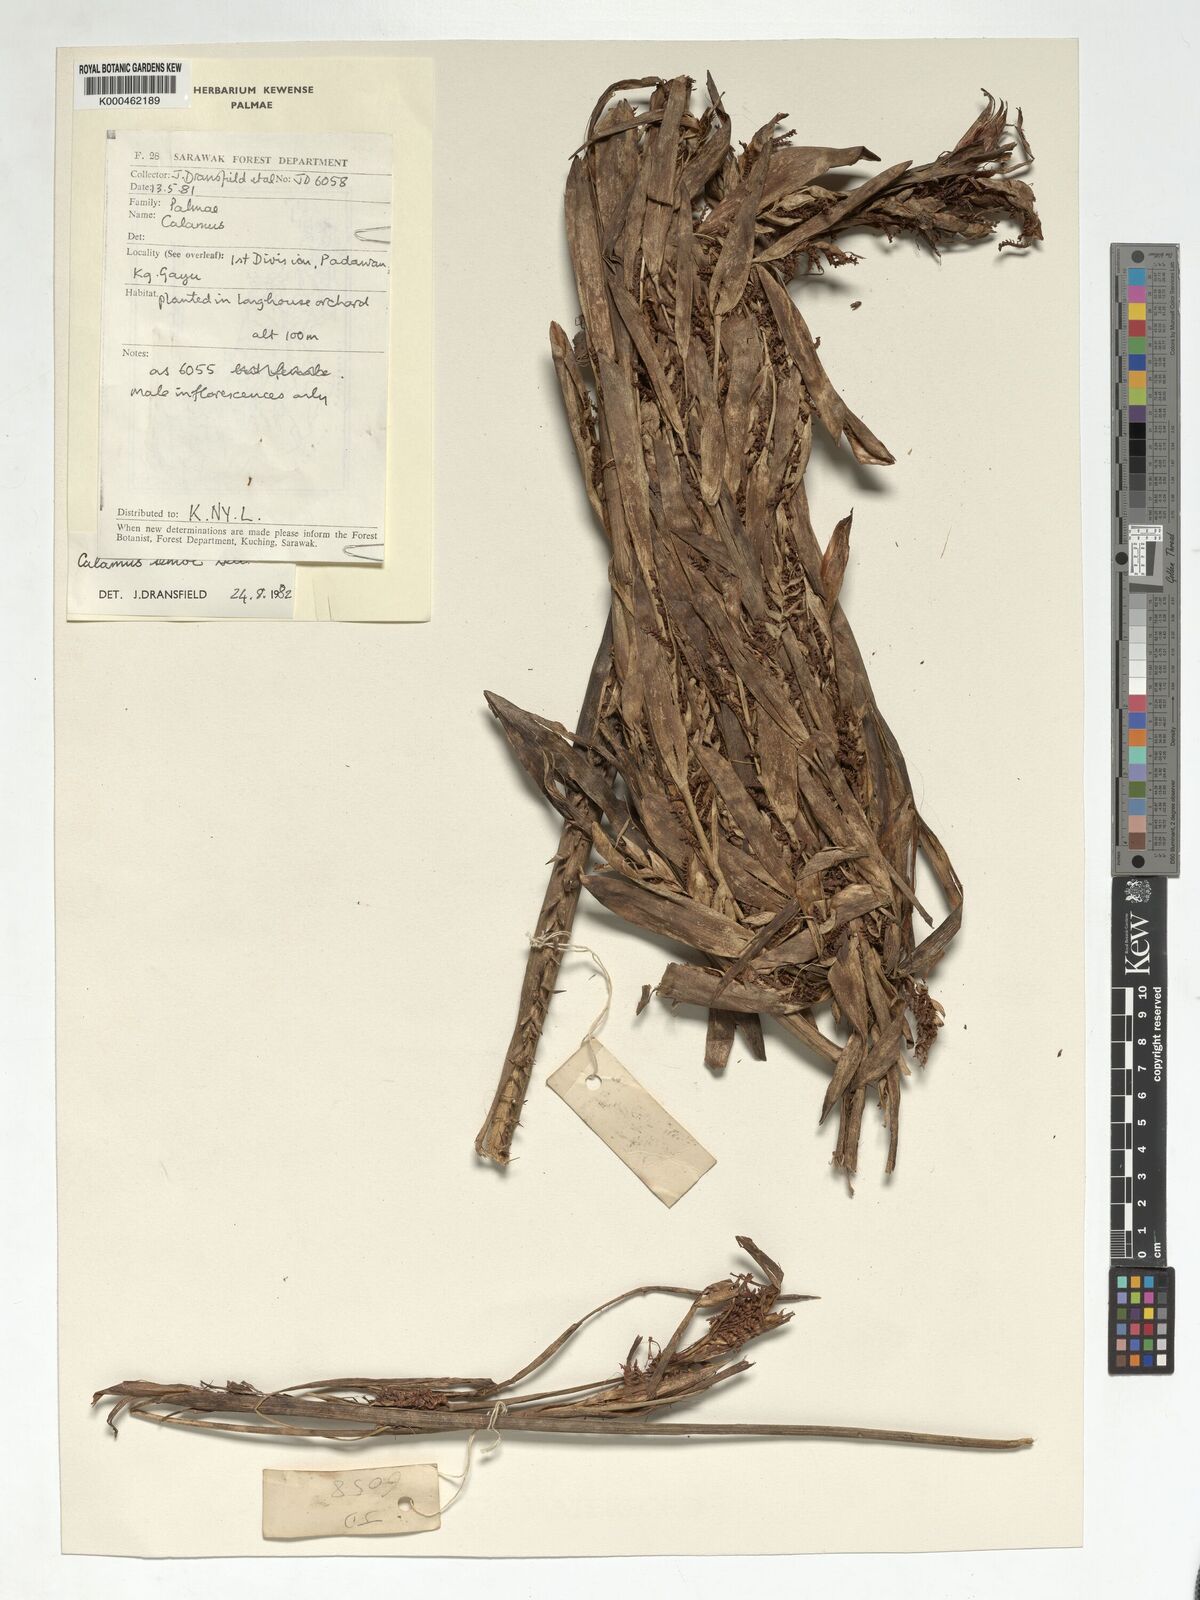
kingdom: Plantae
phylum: Tracheophyta
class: Liliopsida
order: Arecales
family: Arecaceae
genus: Calamus
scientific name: Calamus erioacanthus
